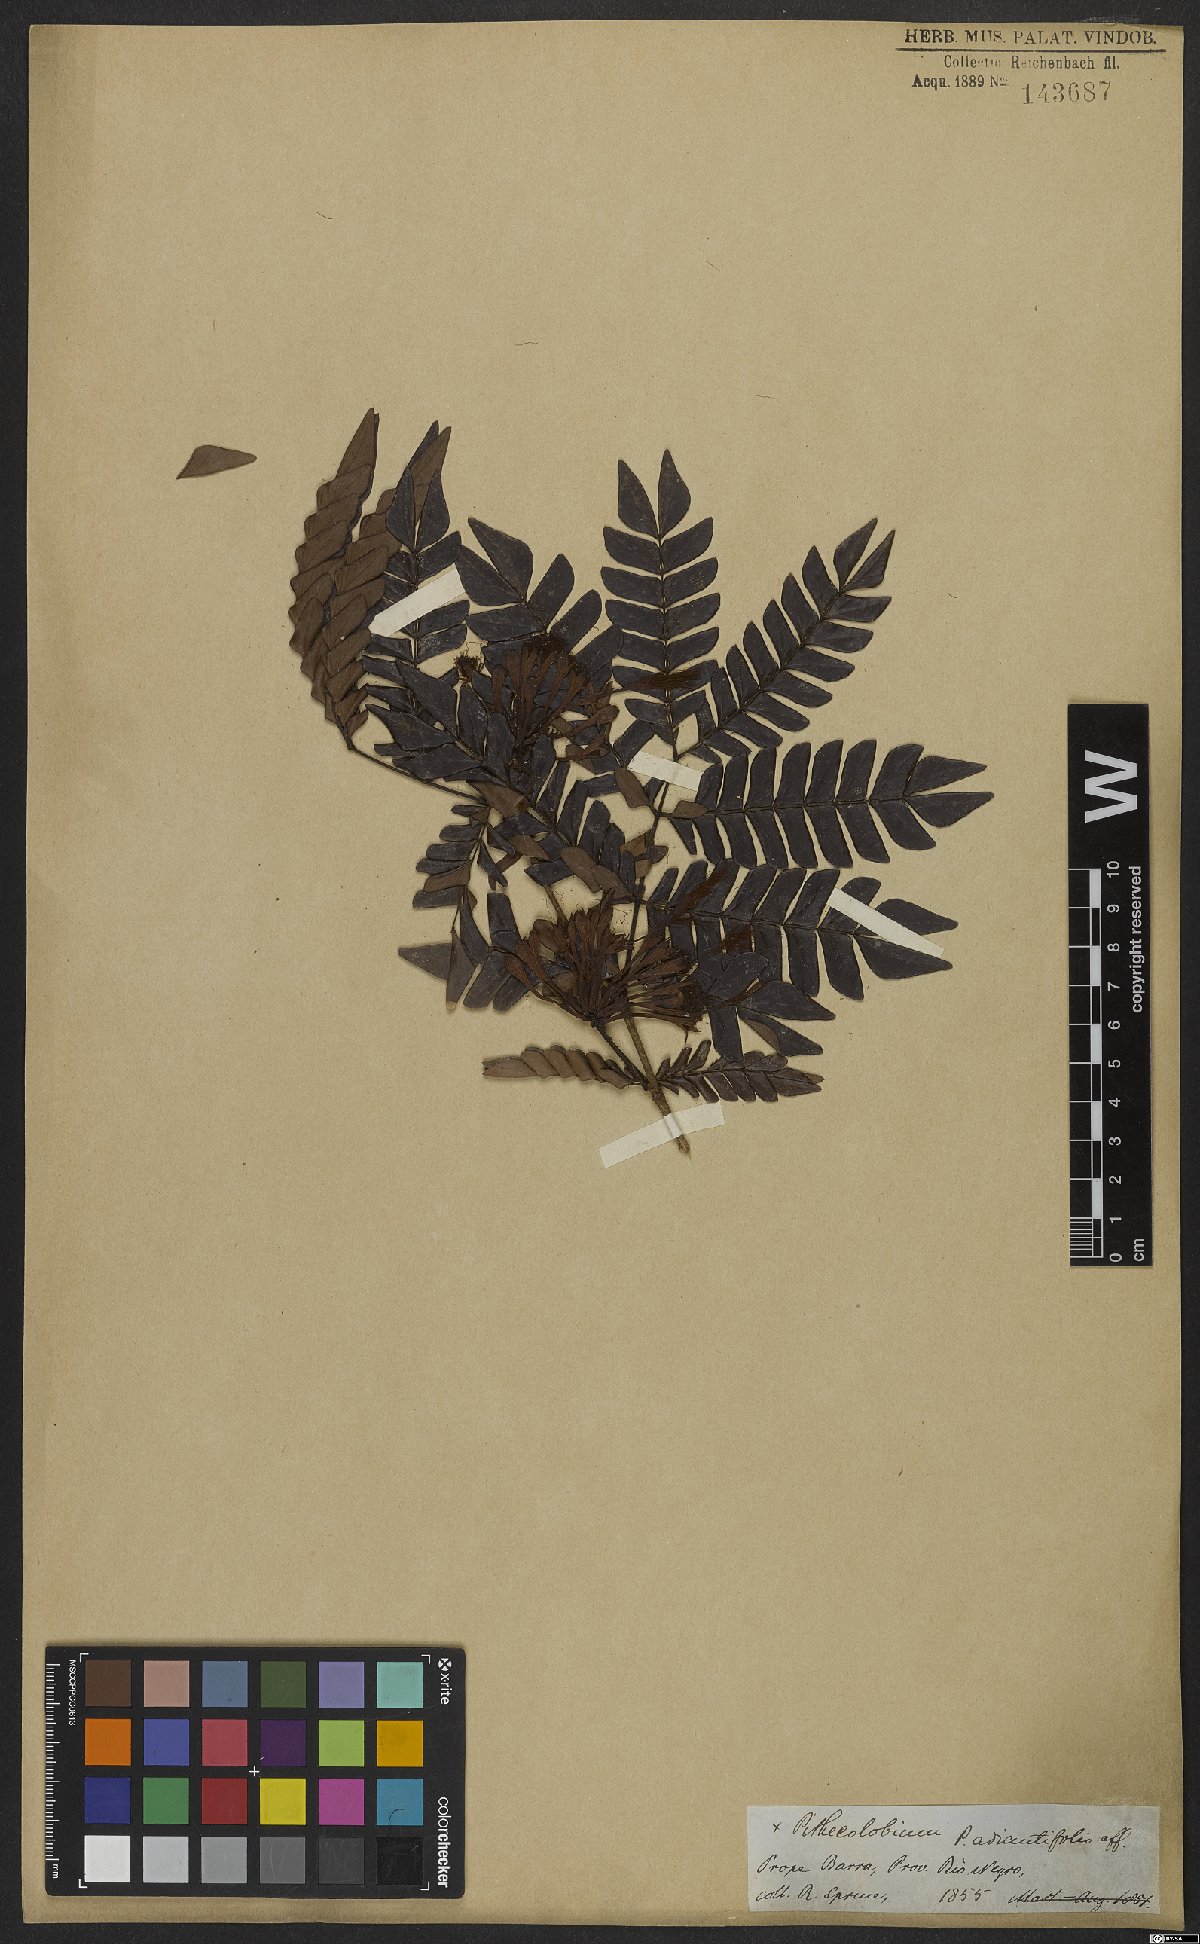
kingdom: Plantae
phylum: Tracheophyta
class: Magnoliopsida
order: Fabales
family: Fabaceae
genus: Macrosamanea
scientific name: Macrosamanea discolor
